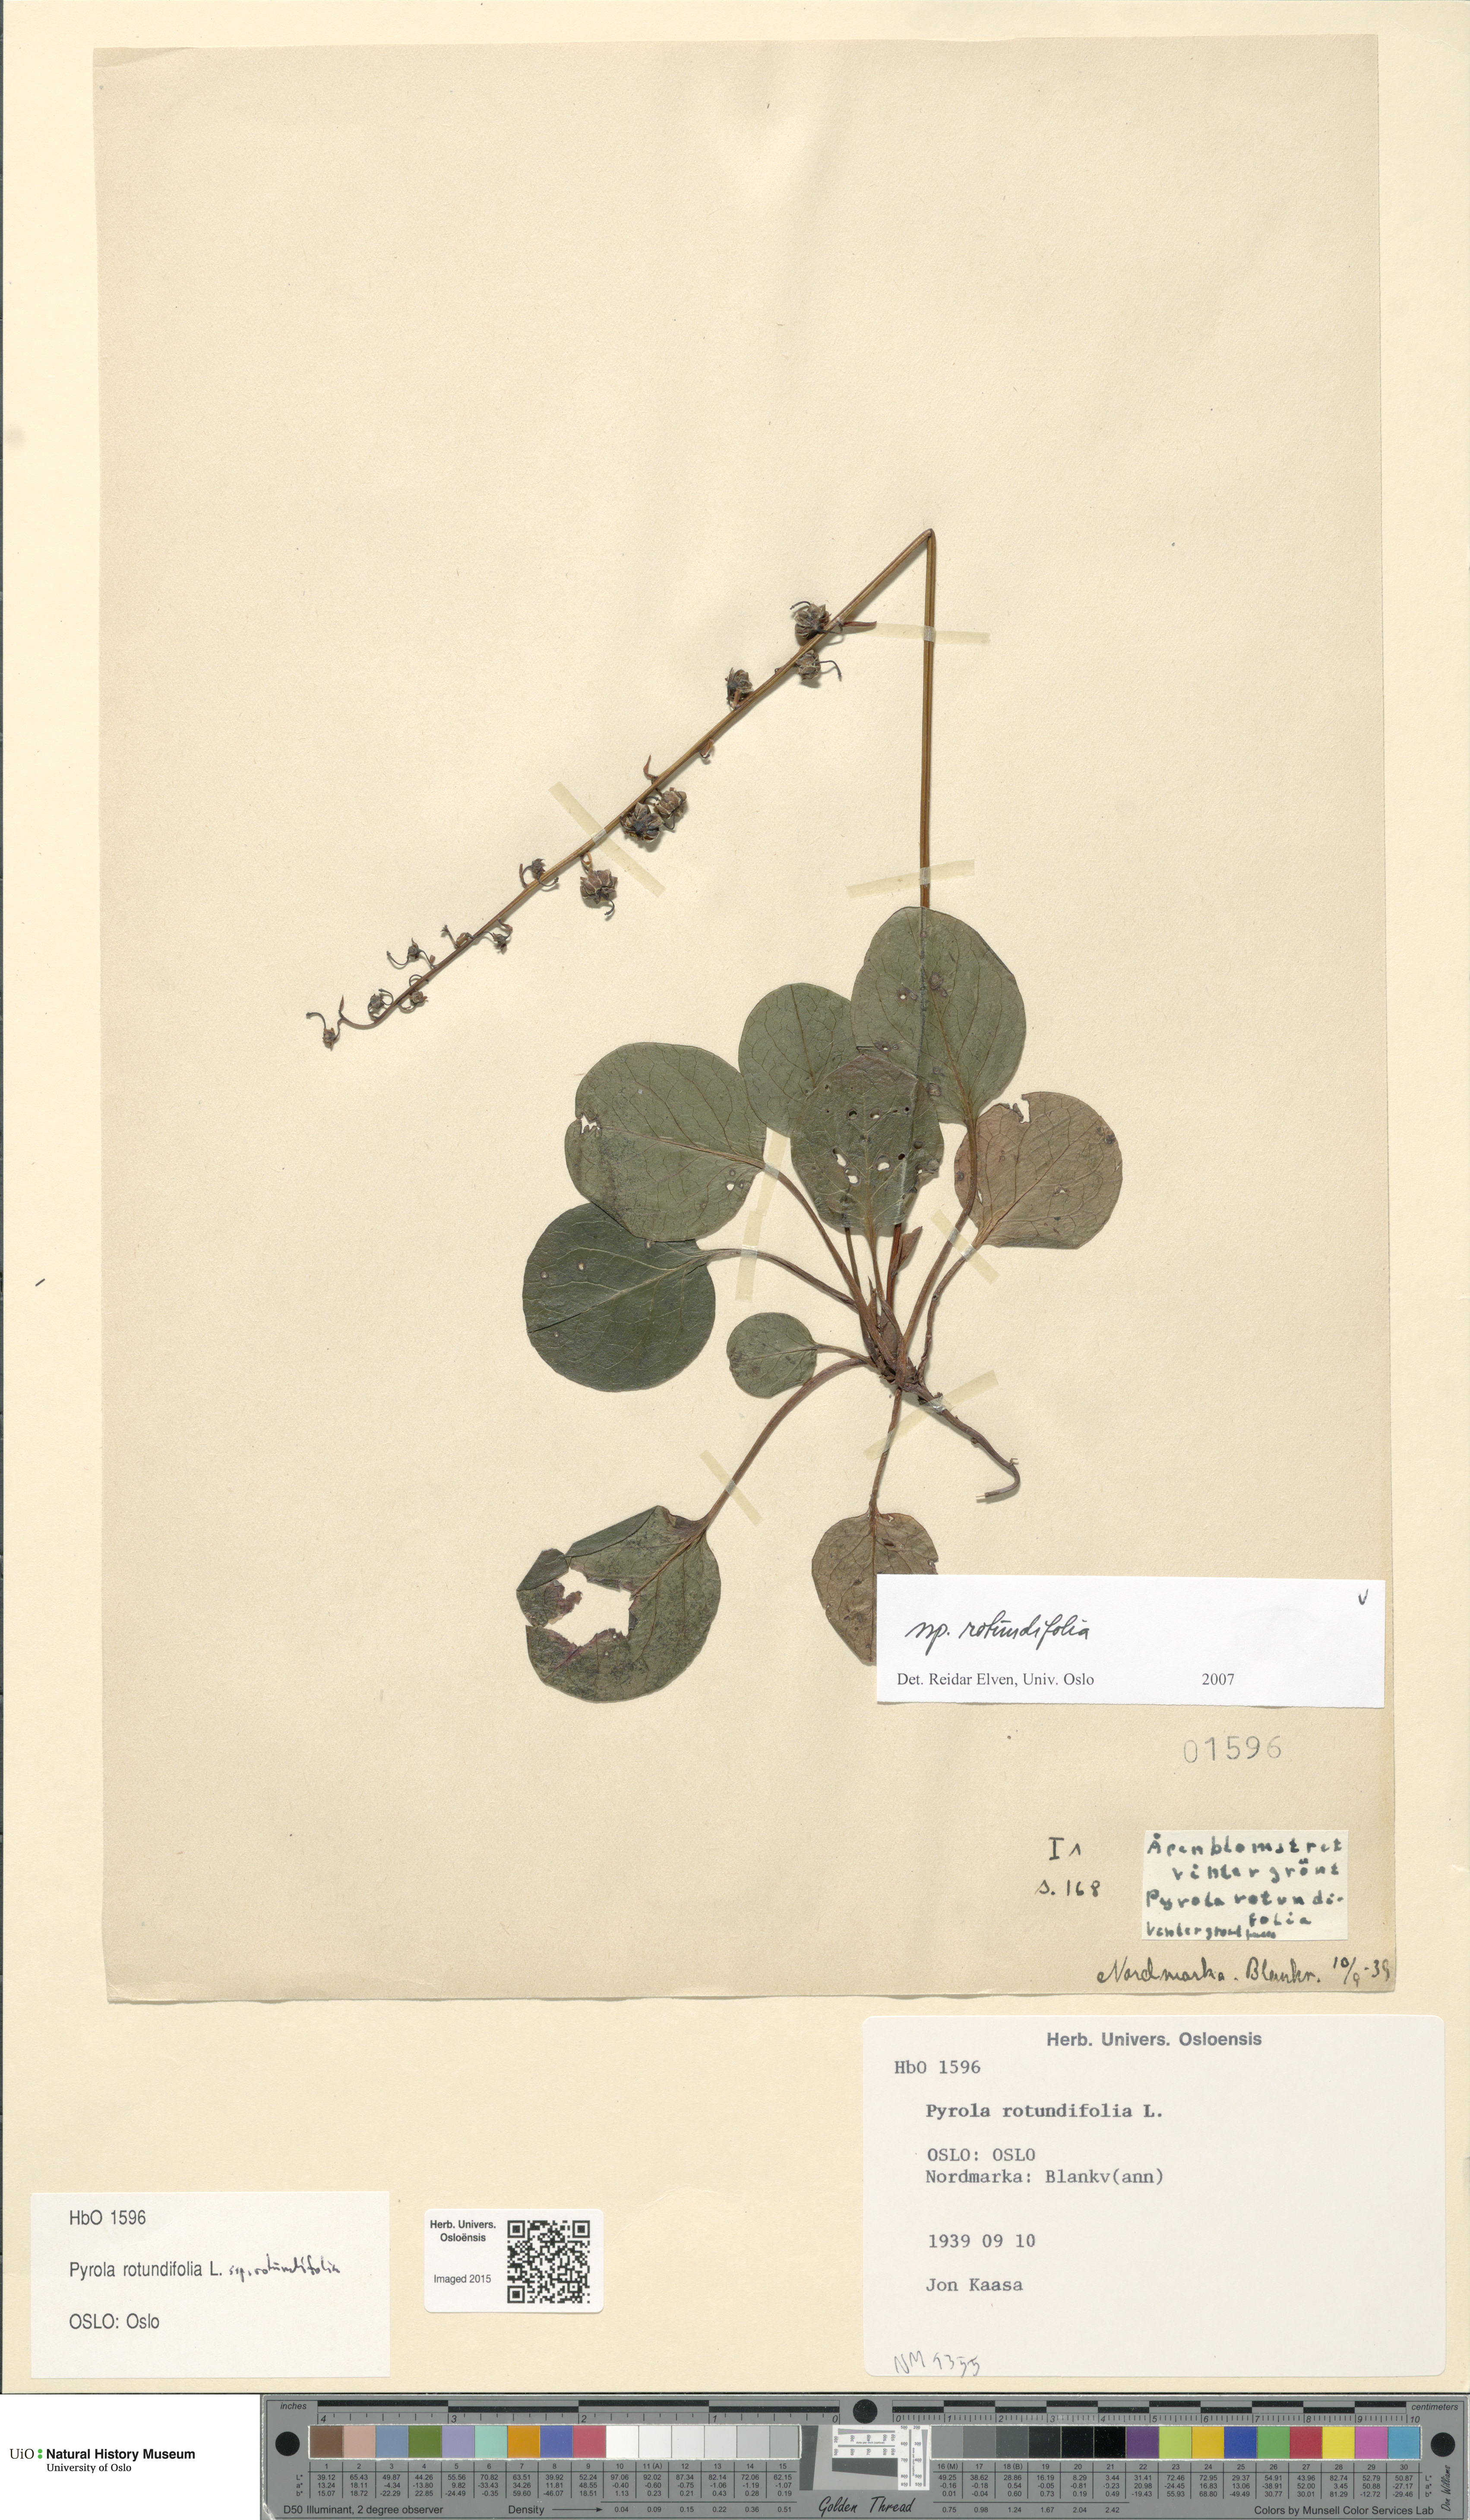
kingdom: Plantae
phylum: Tracheophyta
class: Magnoliopsida
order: Ericales
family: Ericaceae
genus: Pyrola
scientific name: Pyrola rotundifolia
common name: Round-leaved wintergreen
